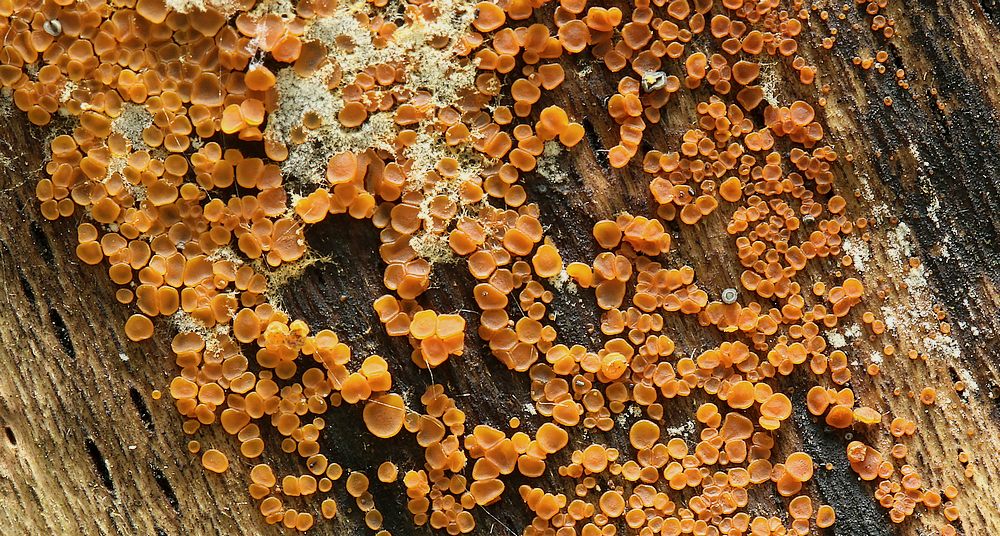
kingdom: Fungi
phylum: Ascomycota
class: Orbiliomycetes
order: Orbiliales
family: Orbiliaceae
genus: Orbilia
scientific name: Orbilia xanthostigma
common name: krumsporet voksskive
